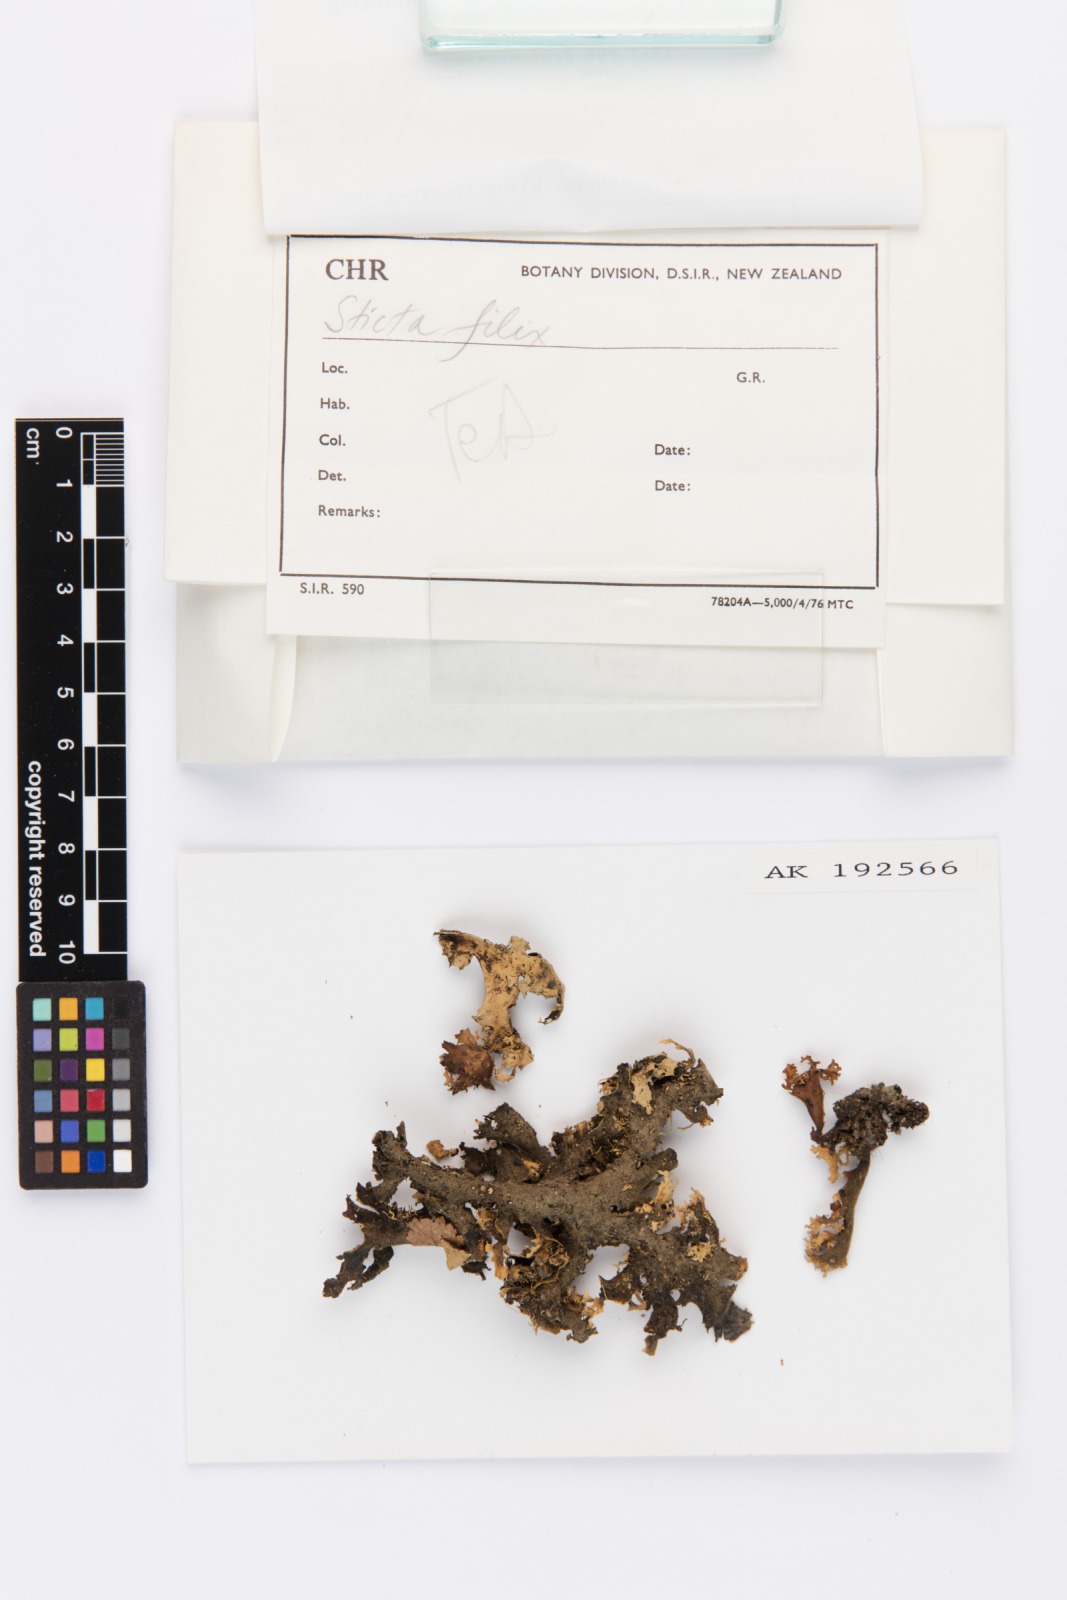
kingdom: Fungi
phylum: Ascomycota
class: Lecanoromycetes
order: Peltigerales
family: Lobariaceae
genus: Sticta
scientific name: Sticta filix
